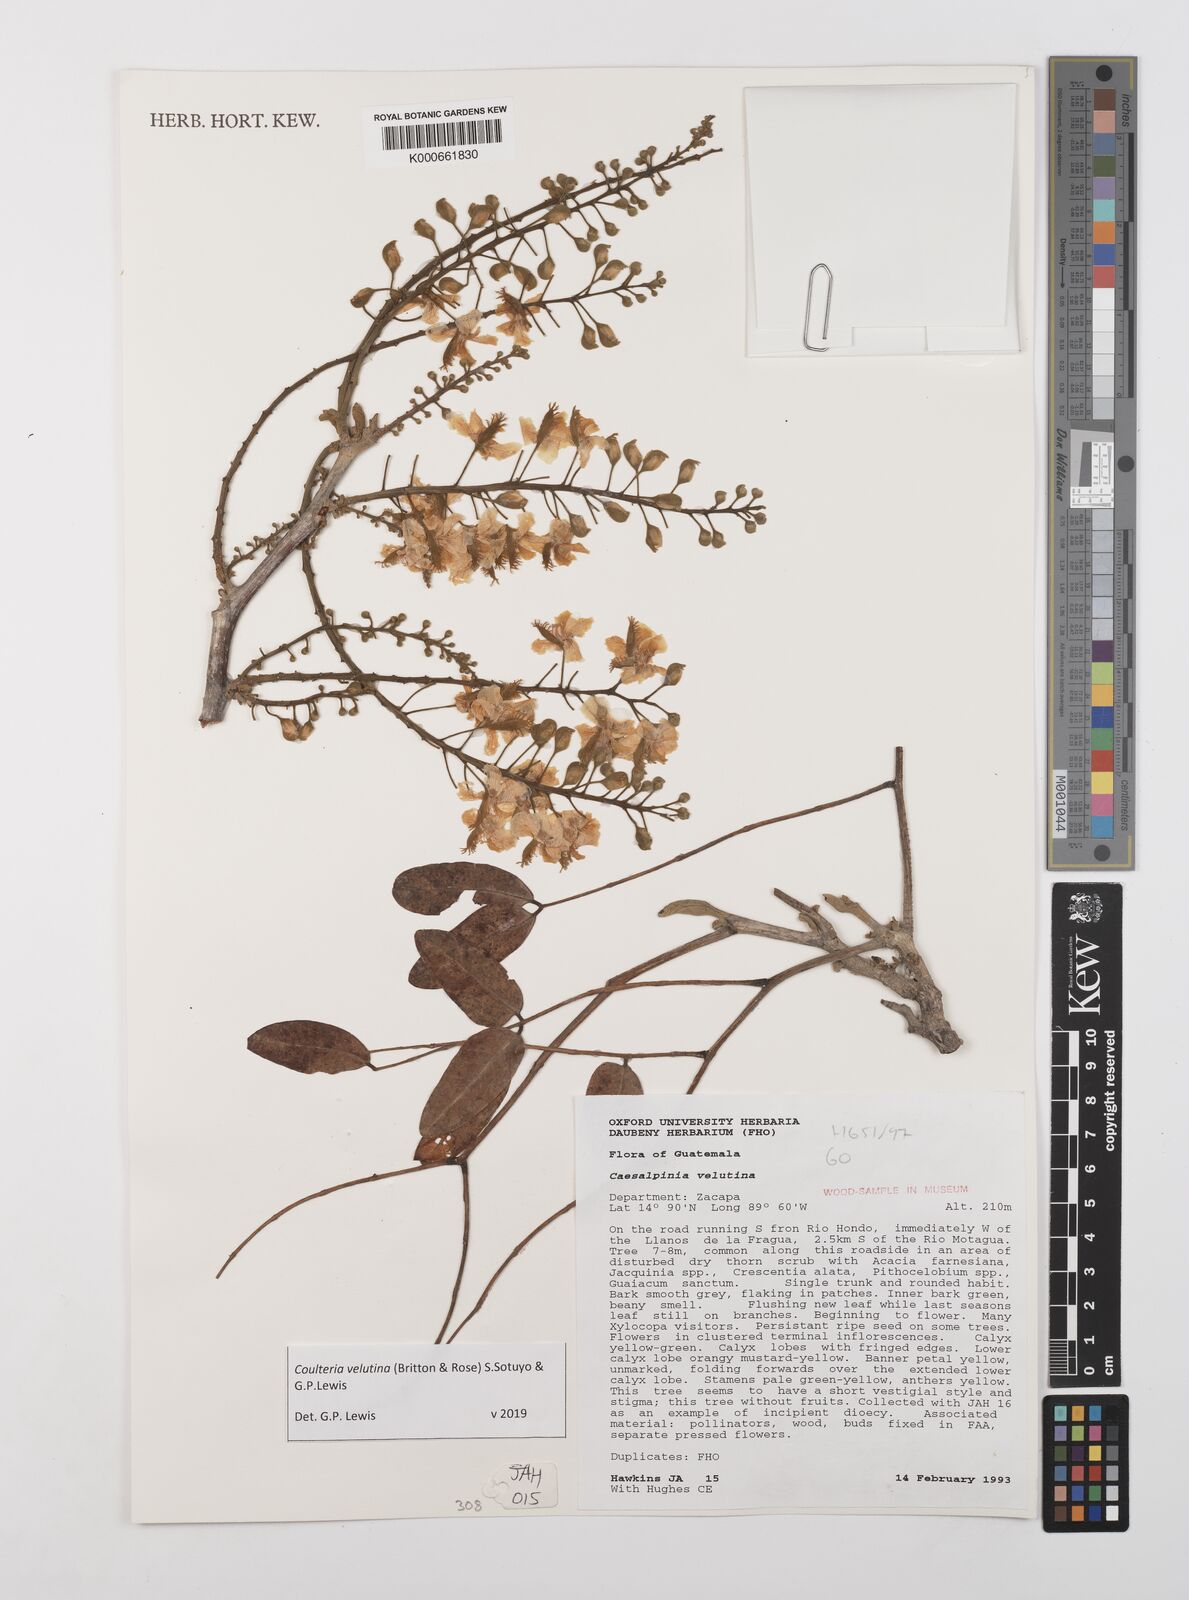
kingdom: Plantae
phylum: Tracheophyta
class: Magnoliopsida
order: Fabales
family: Fabaceae
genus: Coulteria
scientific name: Coulteria velutina
